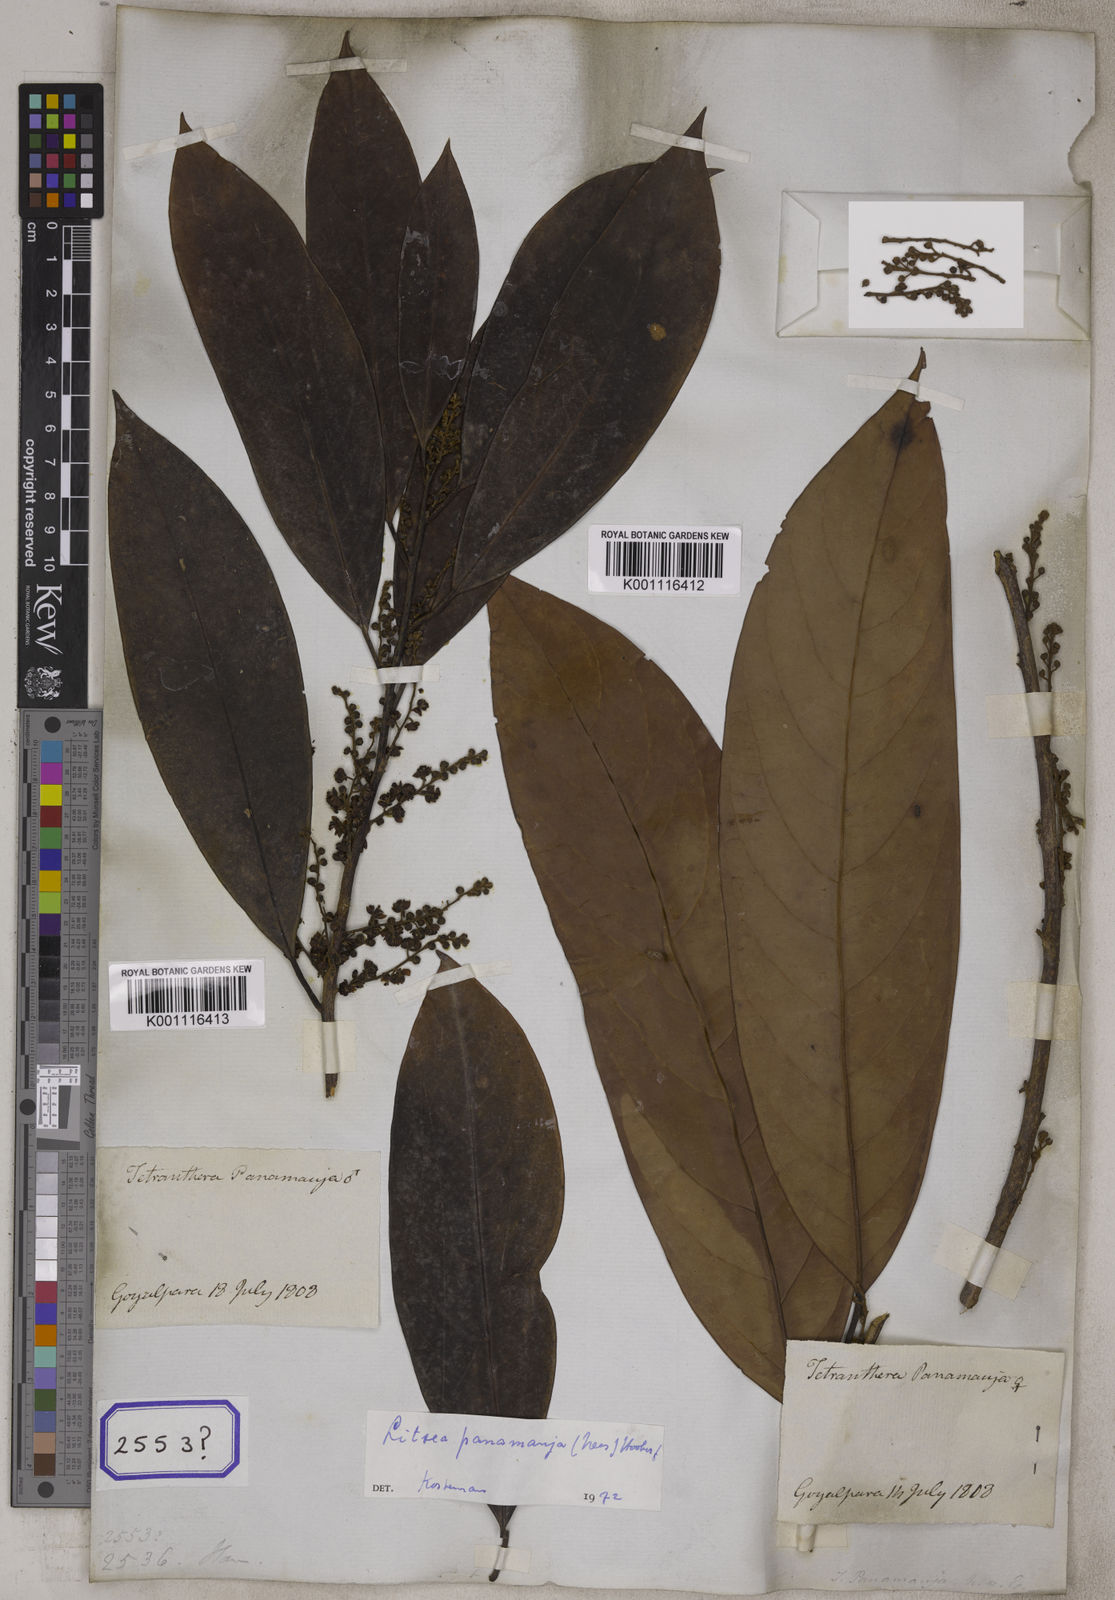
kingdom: Plantae
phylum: Tracheophyta
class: Magnoliopsida
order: Laurales
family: Lauraceae
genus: Litsea
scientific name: Litsea panamanja
